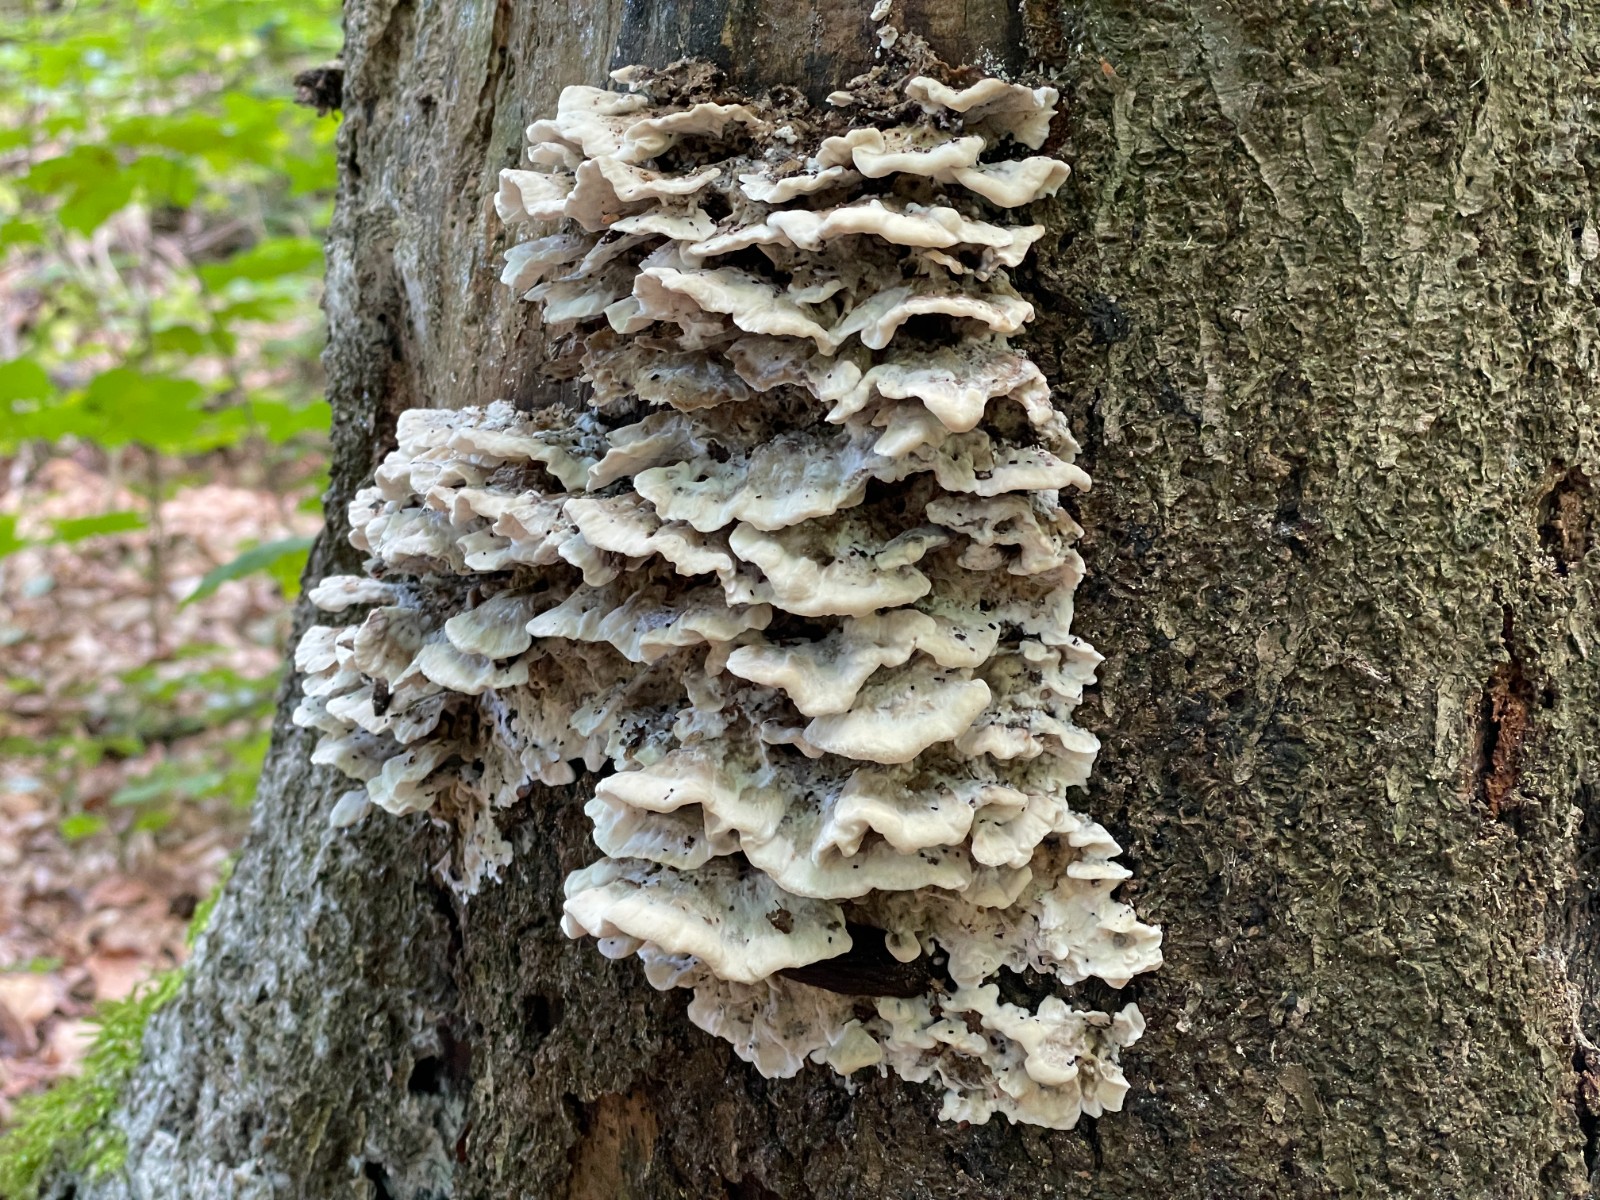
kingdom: Fungi
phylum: Basidiomycota
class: Agaricomycetes
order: Polyporales
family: Phanerochaetaceae
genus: Bjerkandera
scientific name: Bjerkandera adusta
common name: sveden sodporesvamp
